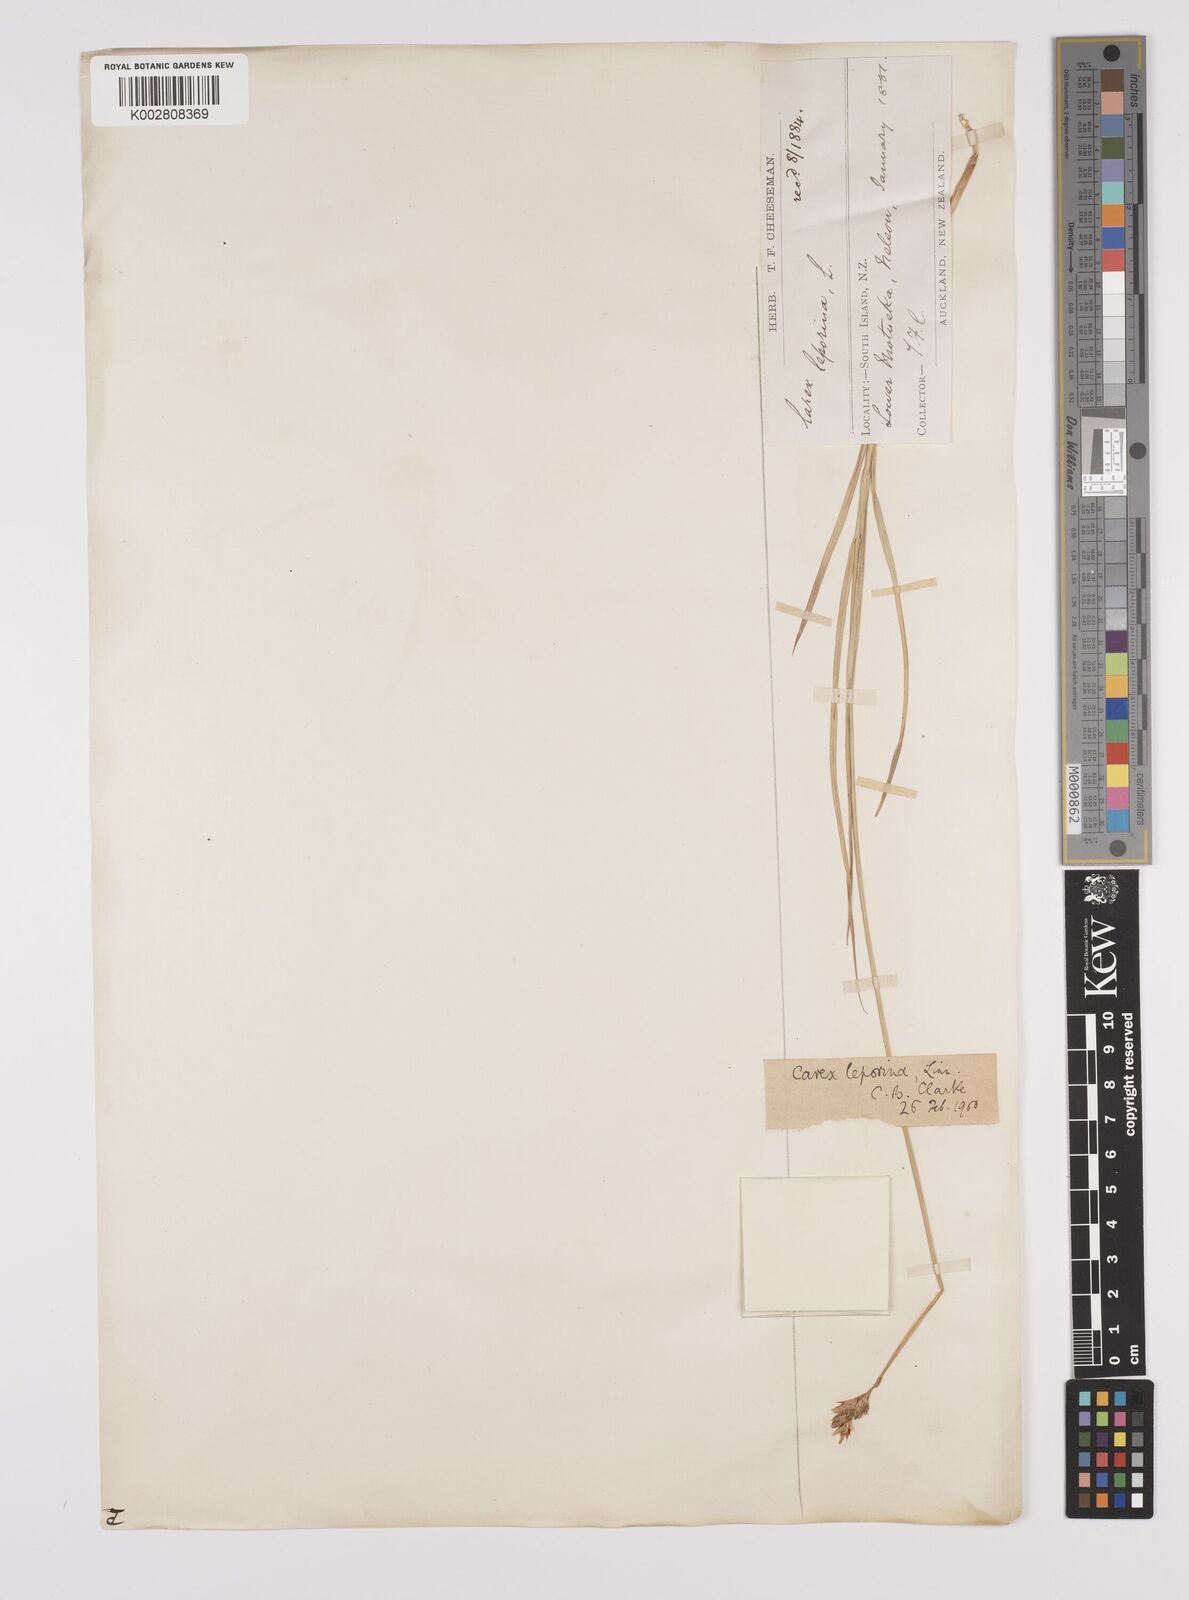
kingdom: Plantae
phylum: Tracheophyta
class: Liliopsida
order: Poales
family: Cyperaceae
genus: Carex
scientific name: Carex leporina
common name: Oval sedge
